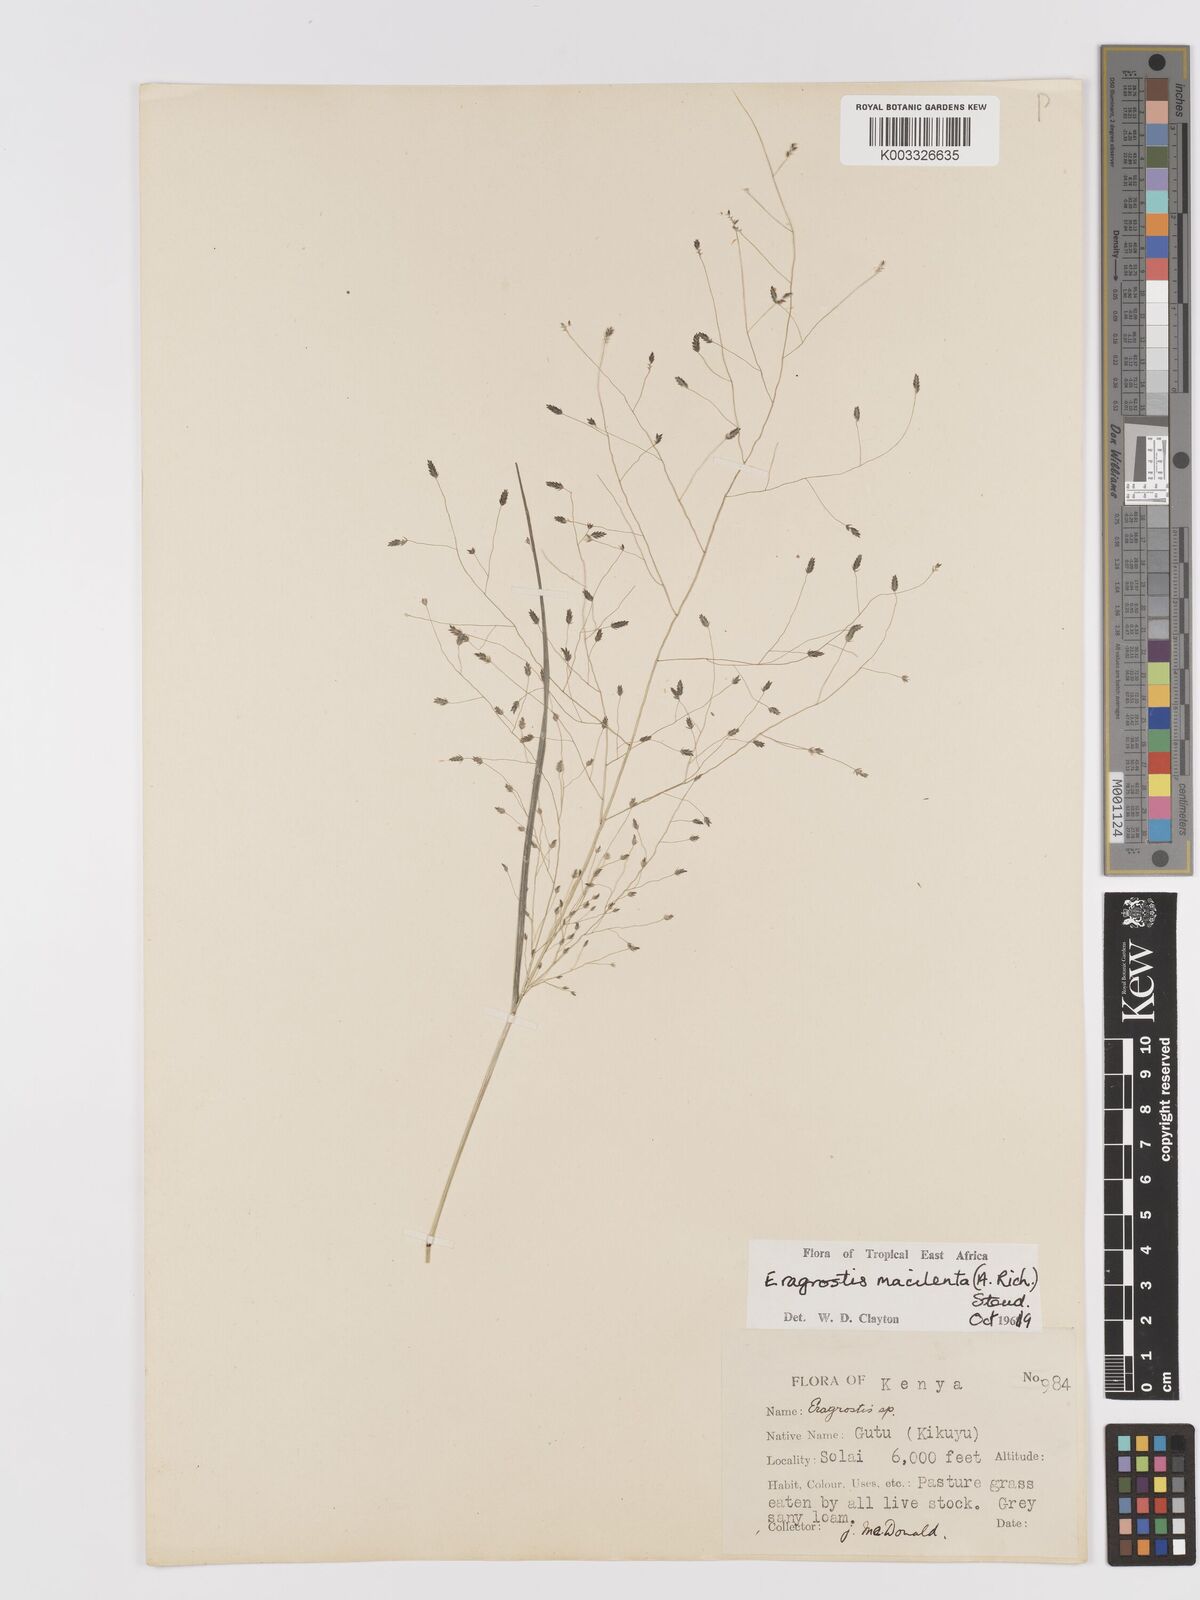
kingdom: Plantae
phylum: Tracheophyta
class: Liliopsida
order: Poales
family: Poaceae
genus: Eragrostis
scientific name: Eragrostis macilenta
